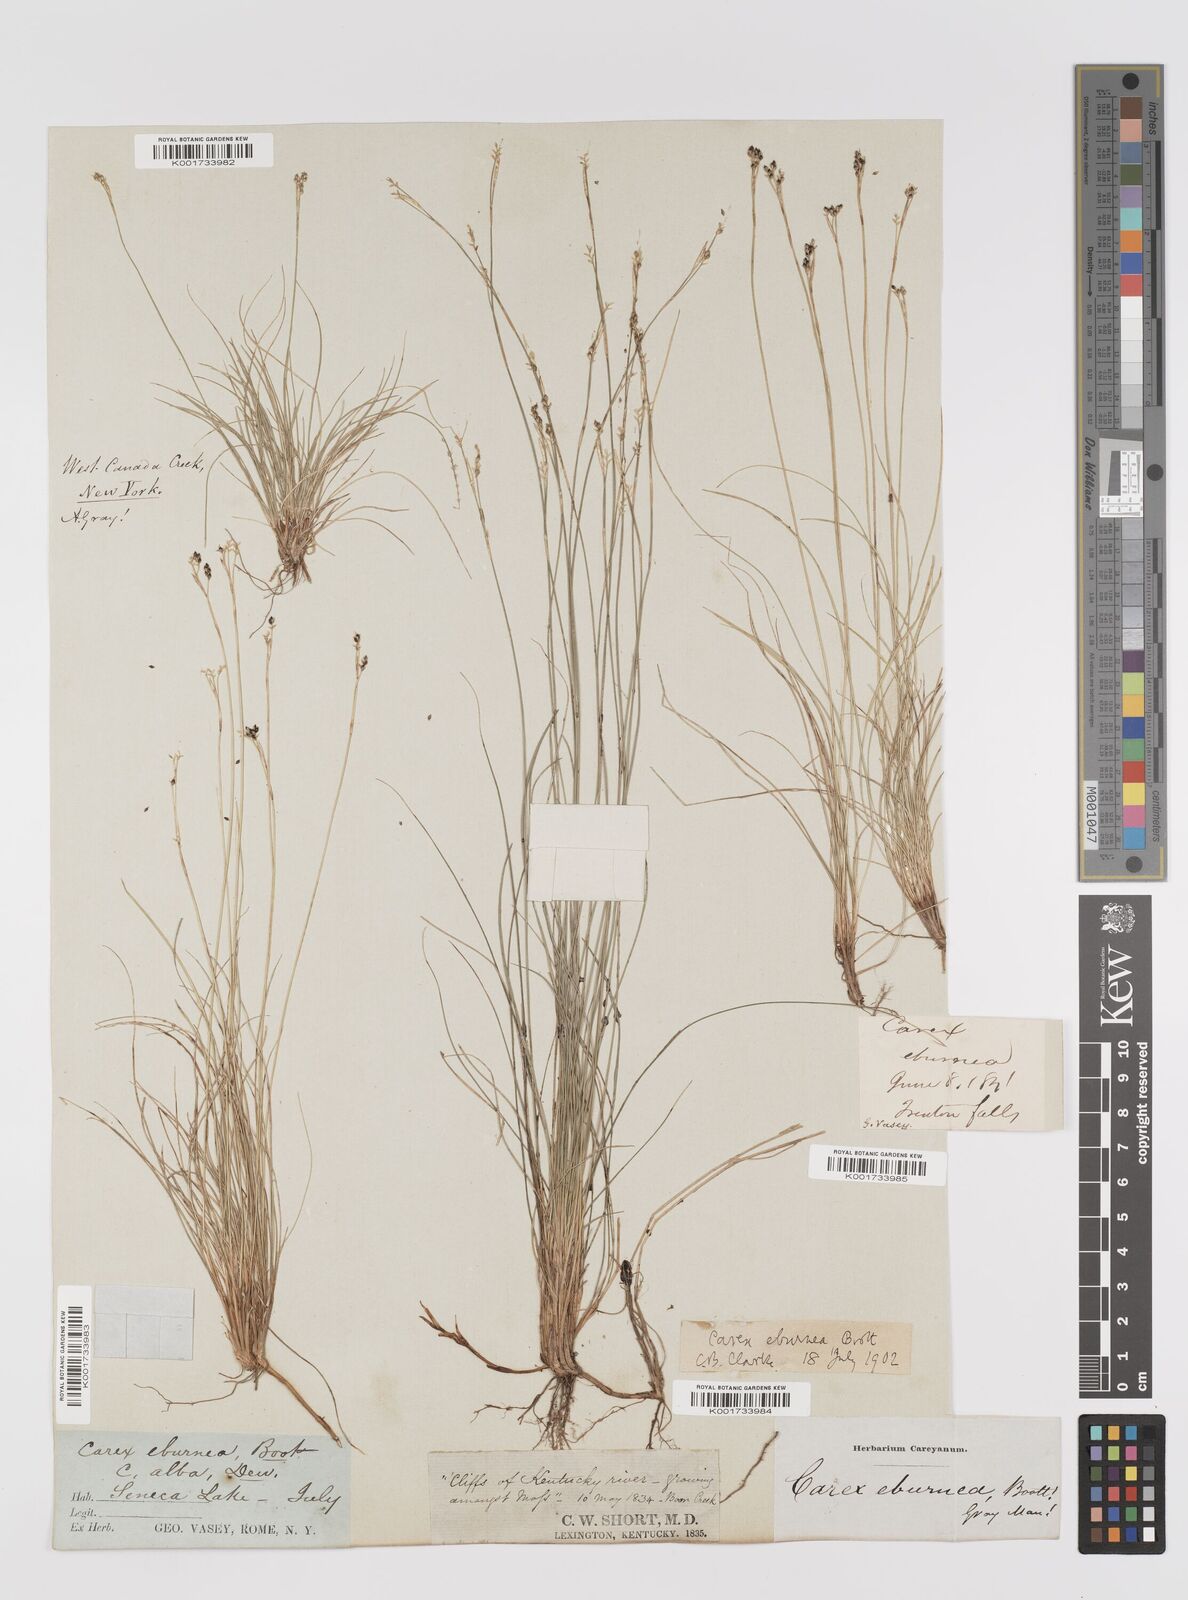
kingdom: Plantae
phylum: Tracheophyta
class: Liliopsida
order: Poales
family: Cyperaceae
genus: Carex
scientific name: Carex eburnea
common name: Bristle-leaved sedge
